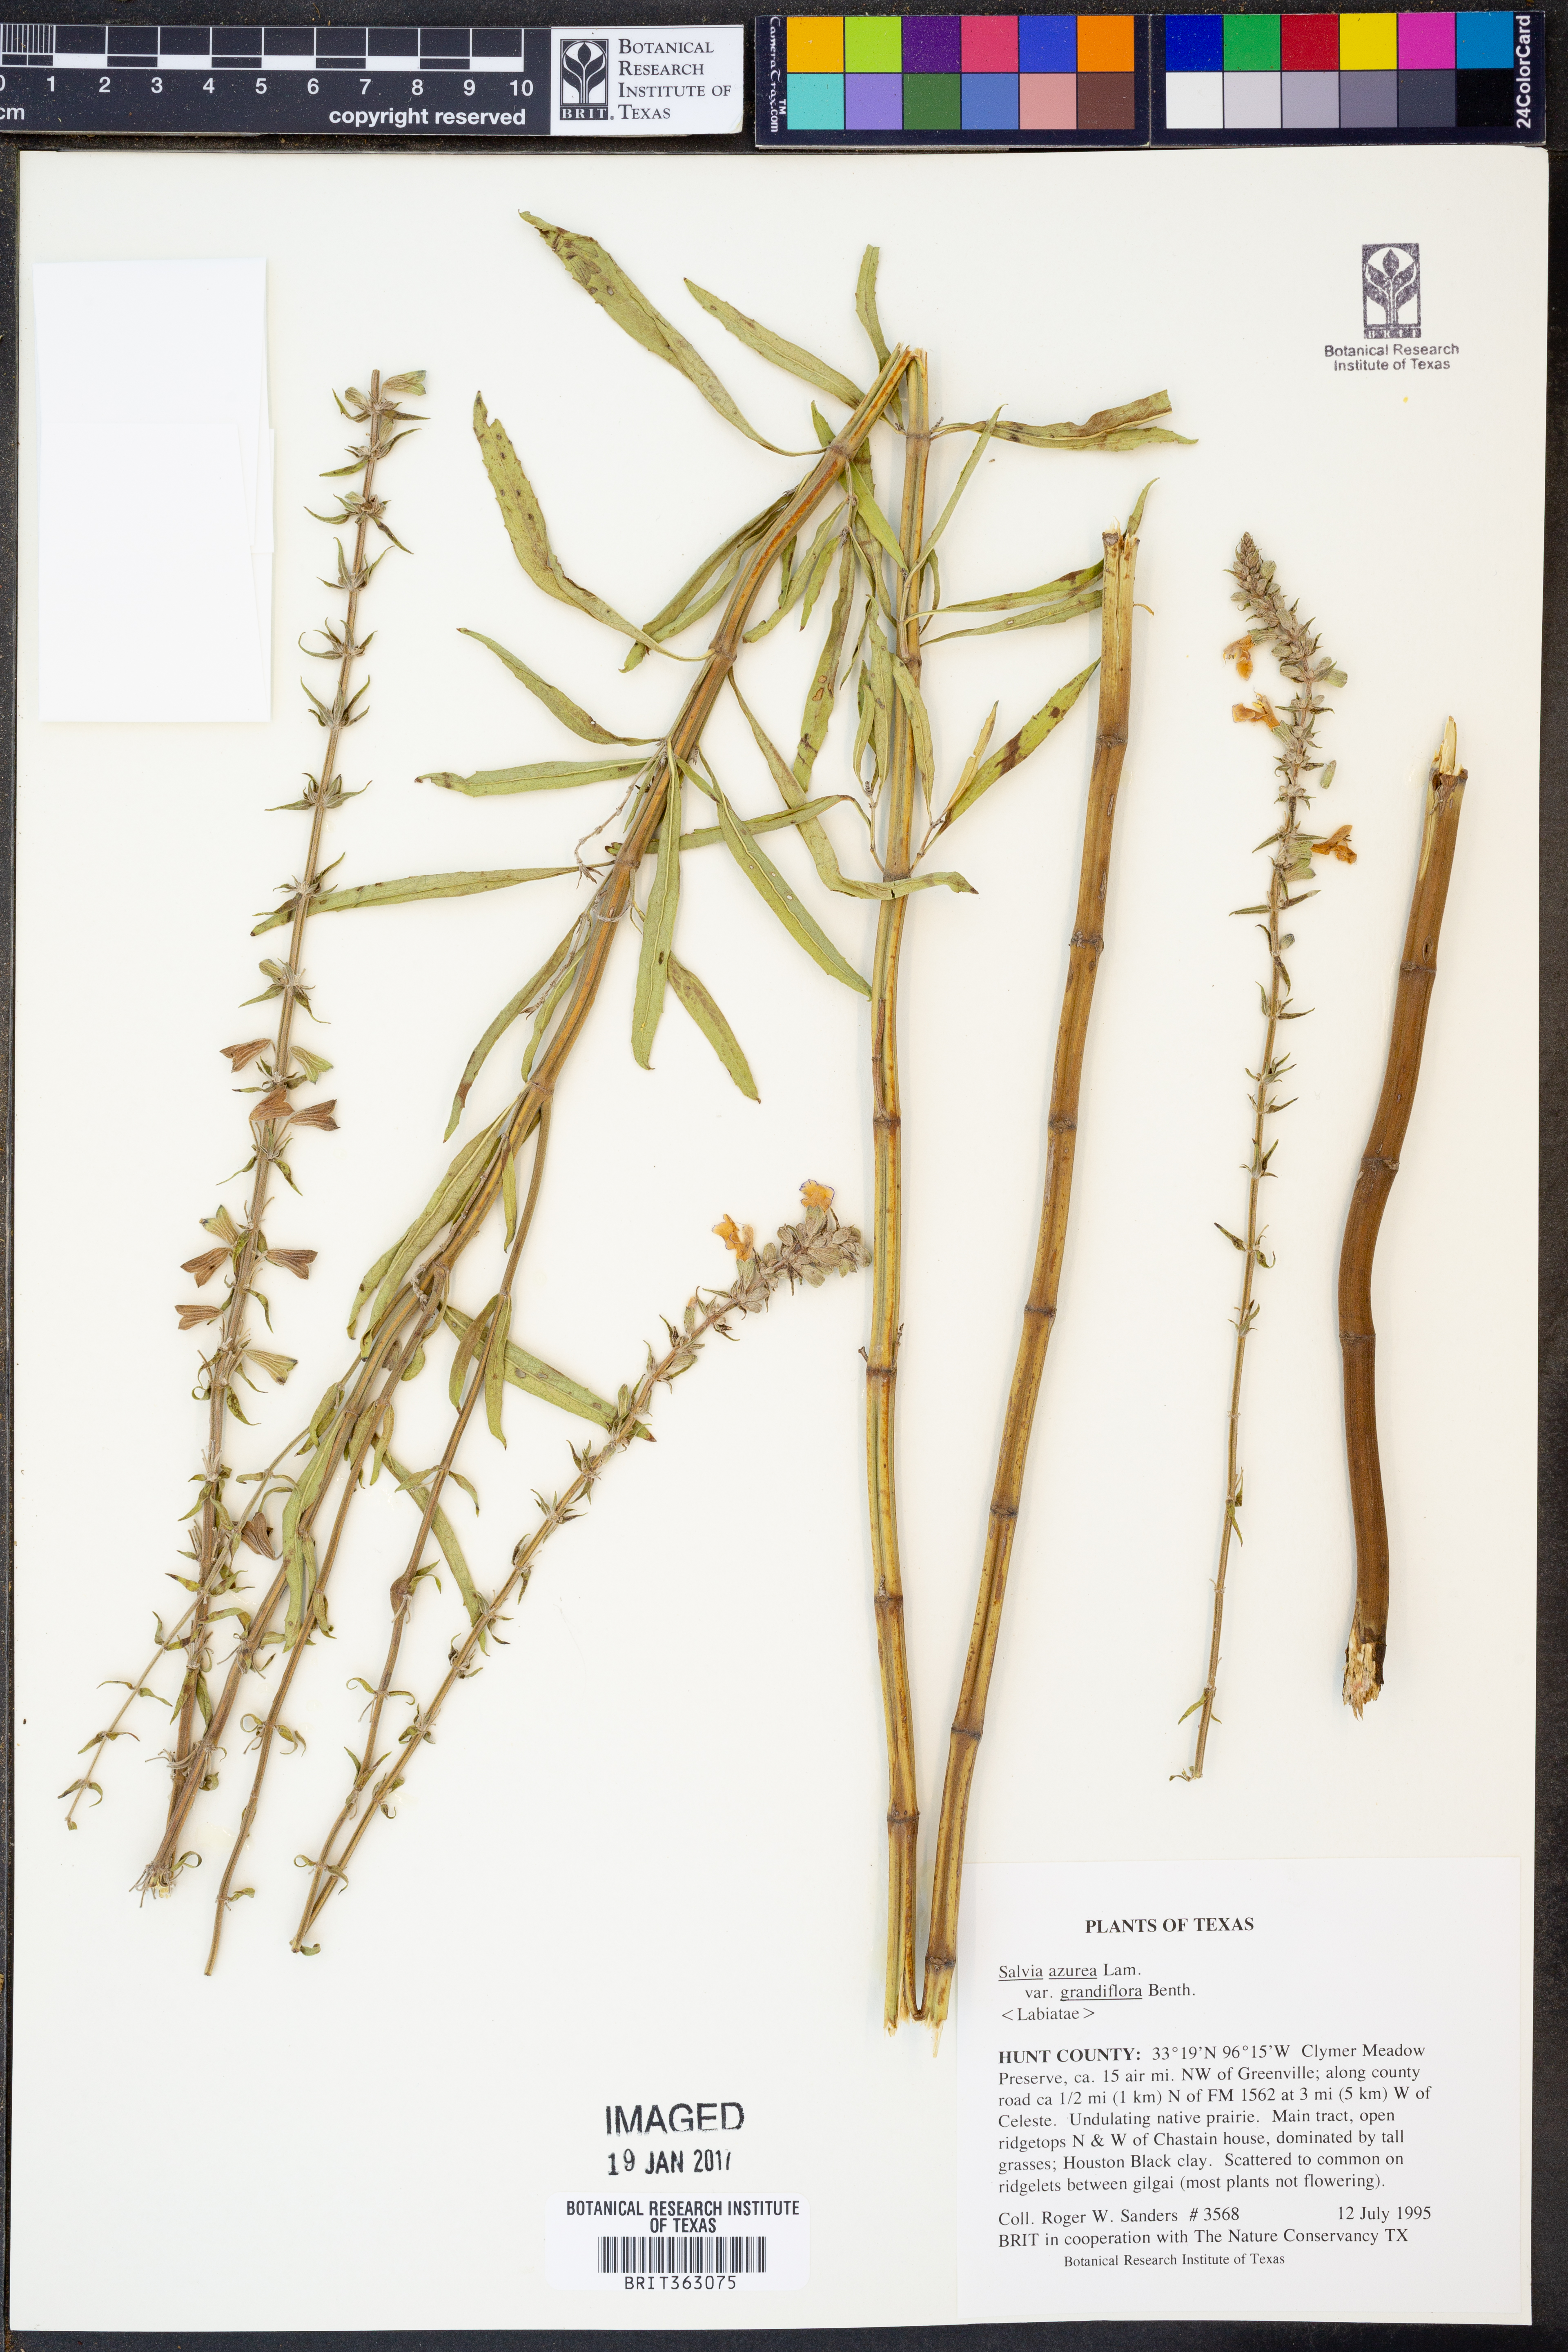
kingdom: Plantae
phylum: Tracheophyta
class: Magnoliopsida
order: Lamiales
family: Lamiaceae
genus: Salvia
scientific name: Salvia azurea
